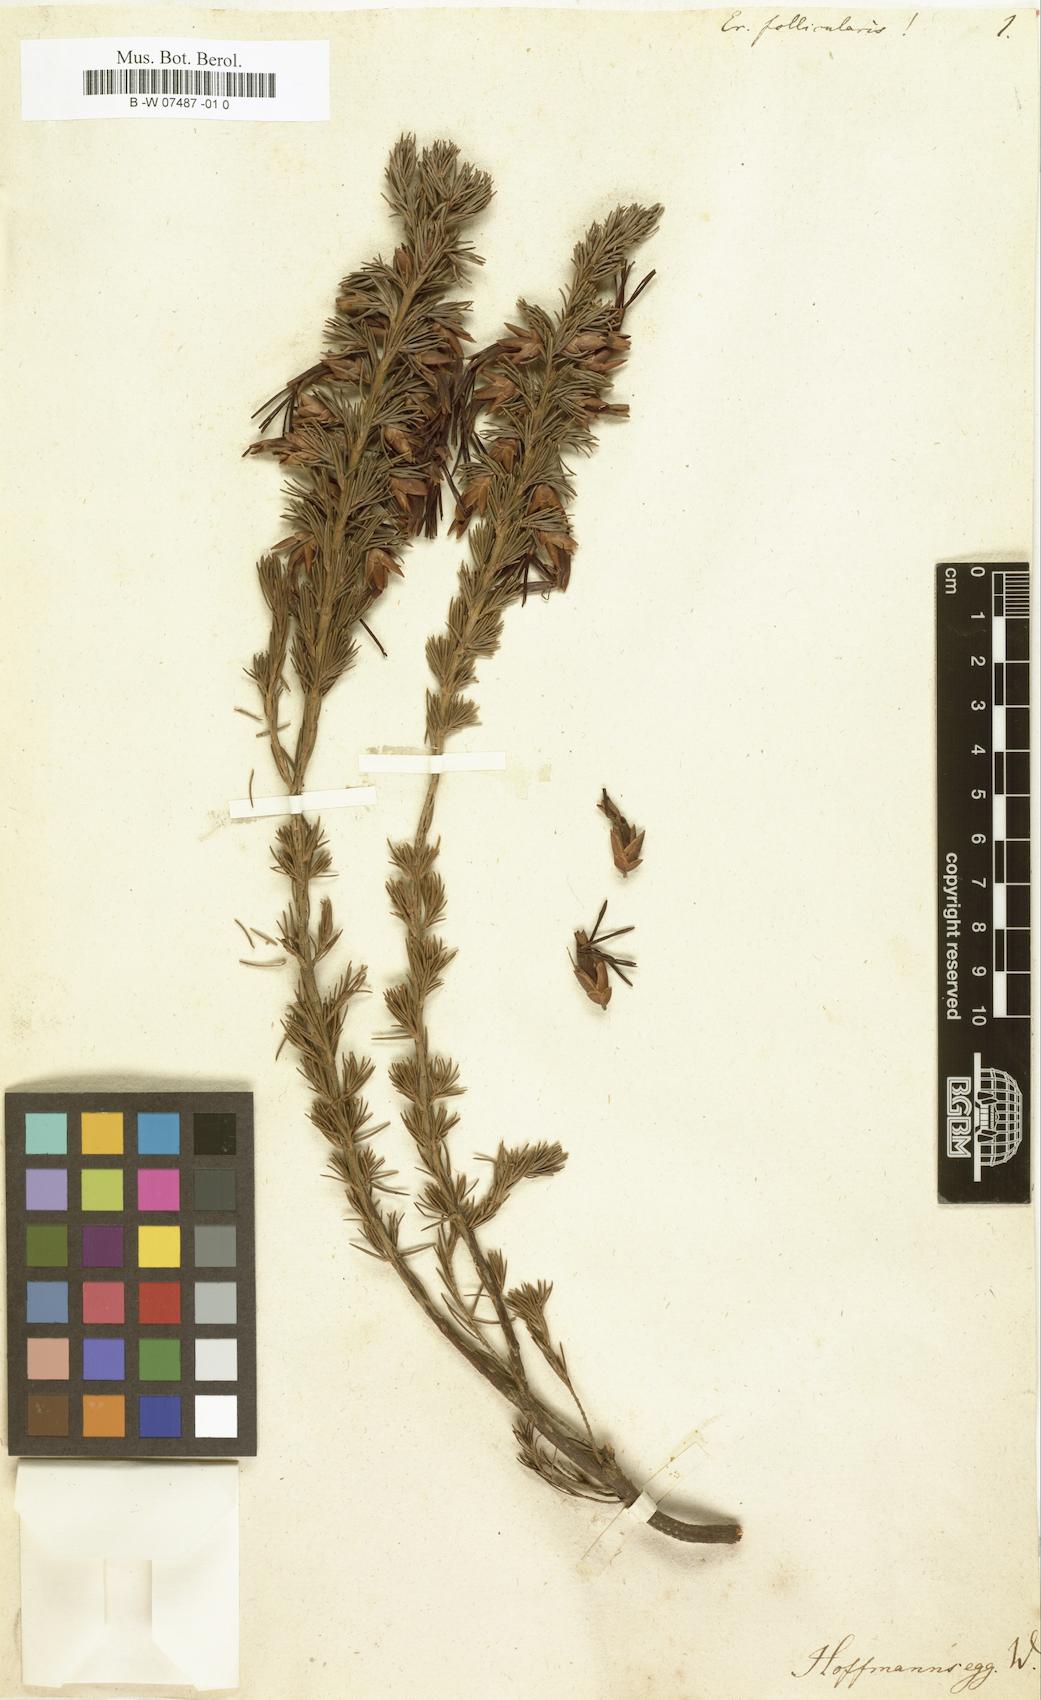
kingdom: Plantae
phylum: Tracheophyta
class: Magnoliopsida
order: Ericales
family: Ericaceae
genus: Erica
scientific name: Erica melastoma
